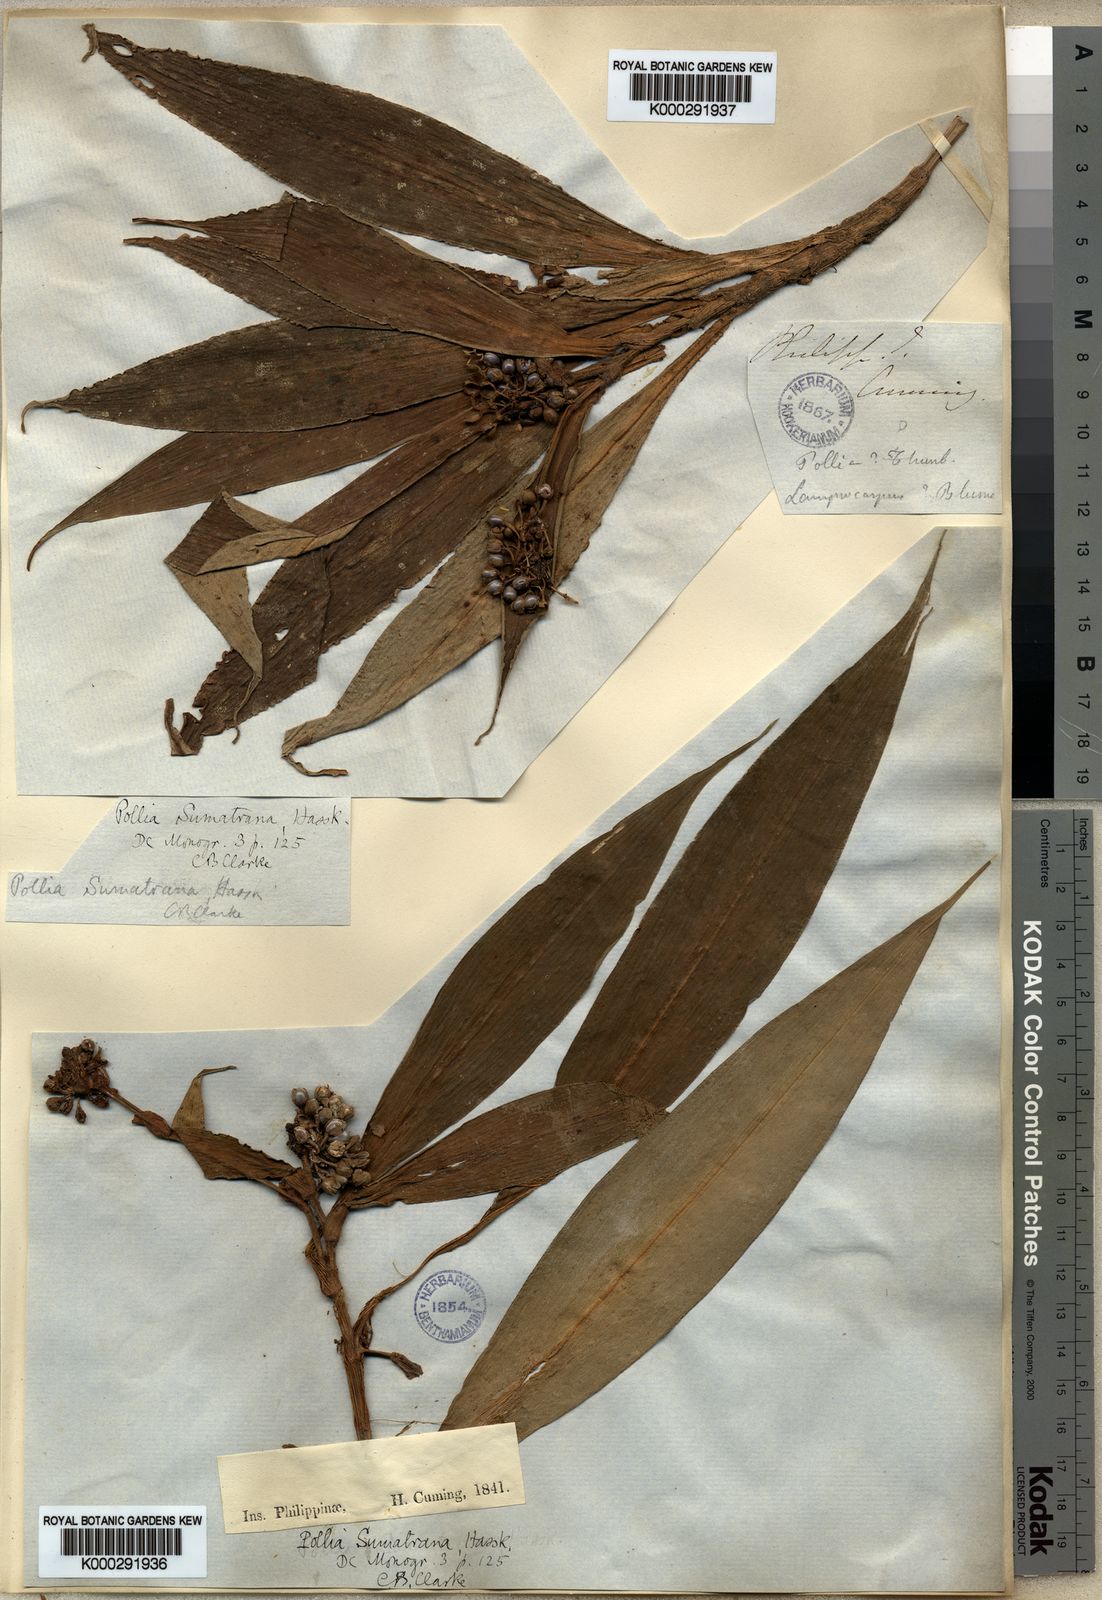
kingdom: Plantae
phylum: Tracheophyta
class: Liliopsida
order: Commelinales
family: Commelinaceae
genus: Pollia
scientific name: Pollia sumatrana
